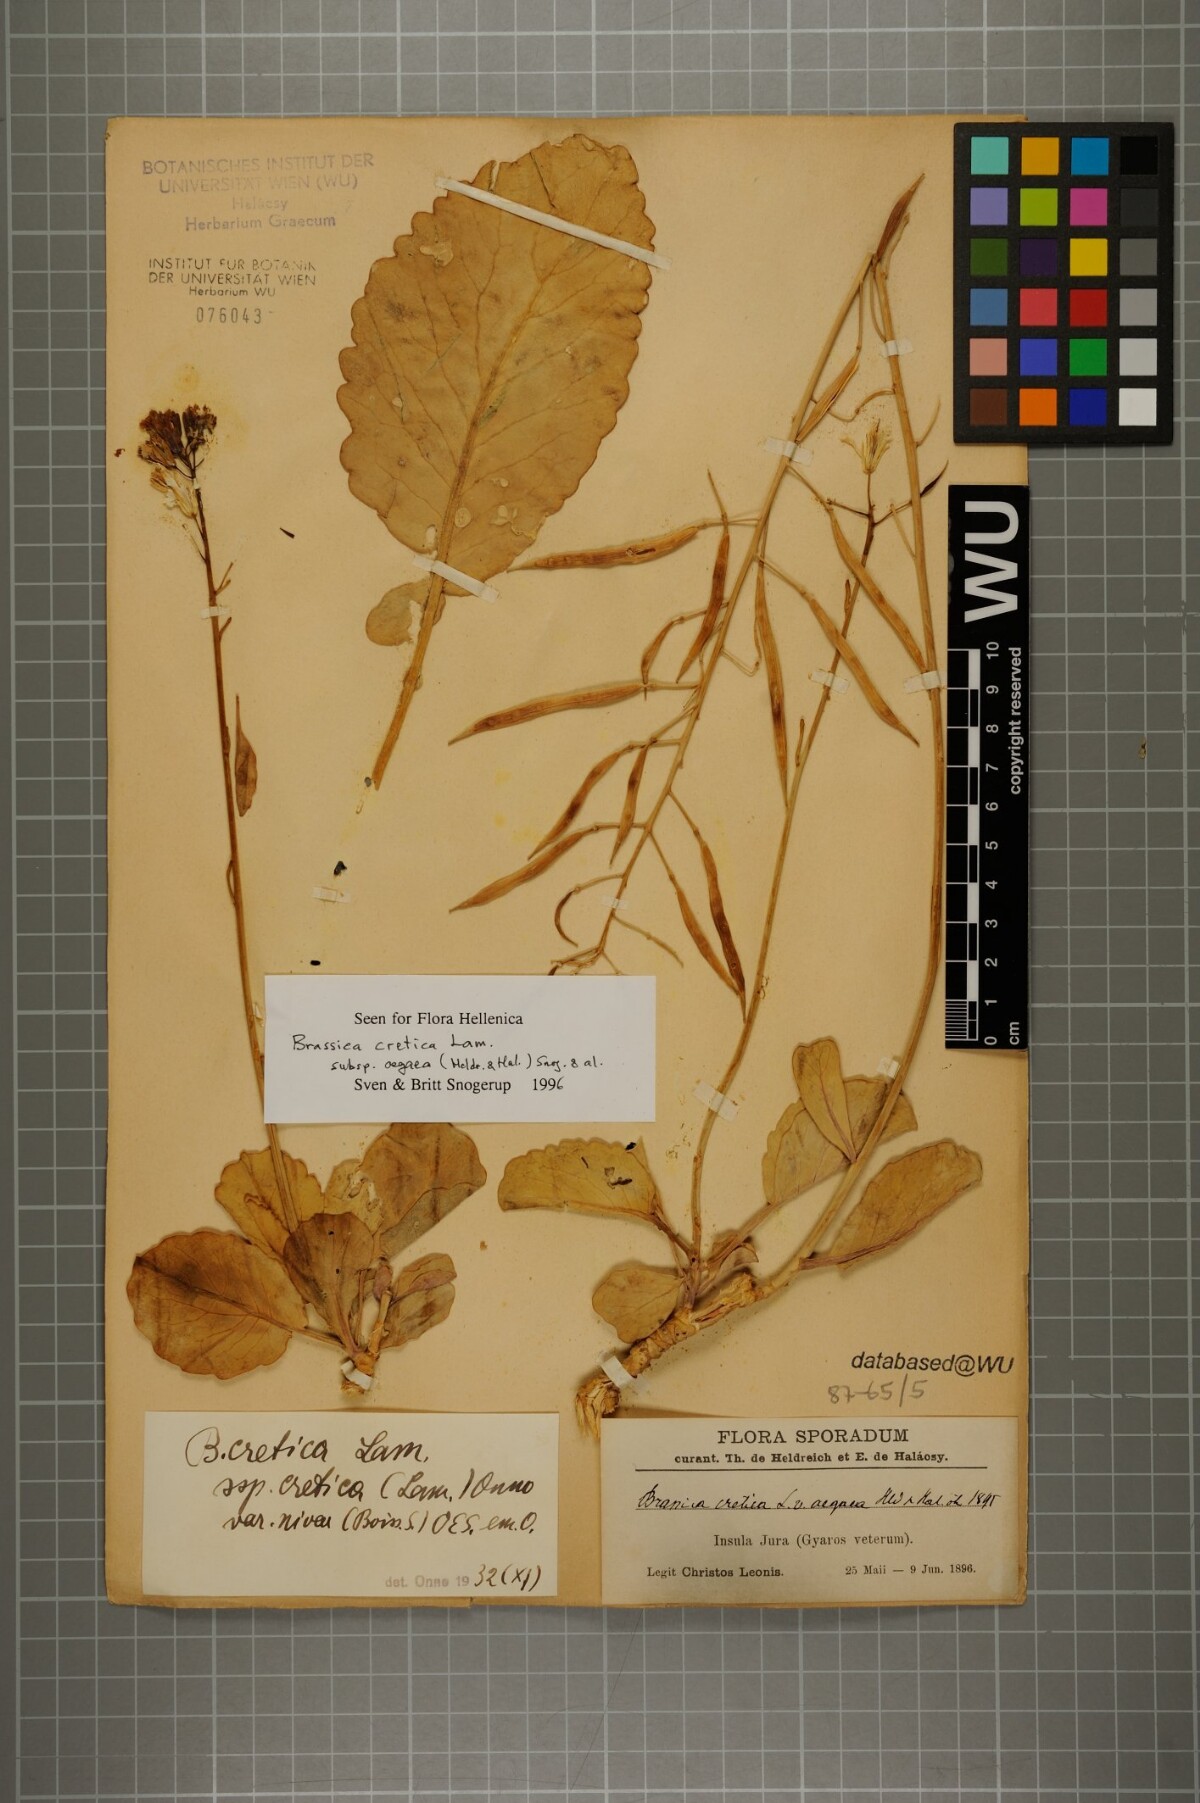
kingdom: Plantae
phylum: Tracheophyta
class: Magnoliopsida
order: Brassicales
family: Brassicaceae
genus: Brassica
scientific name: Brassica cretica
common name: Mustard
